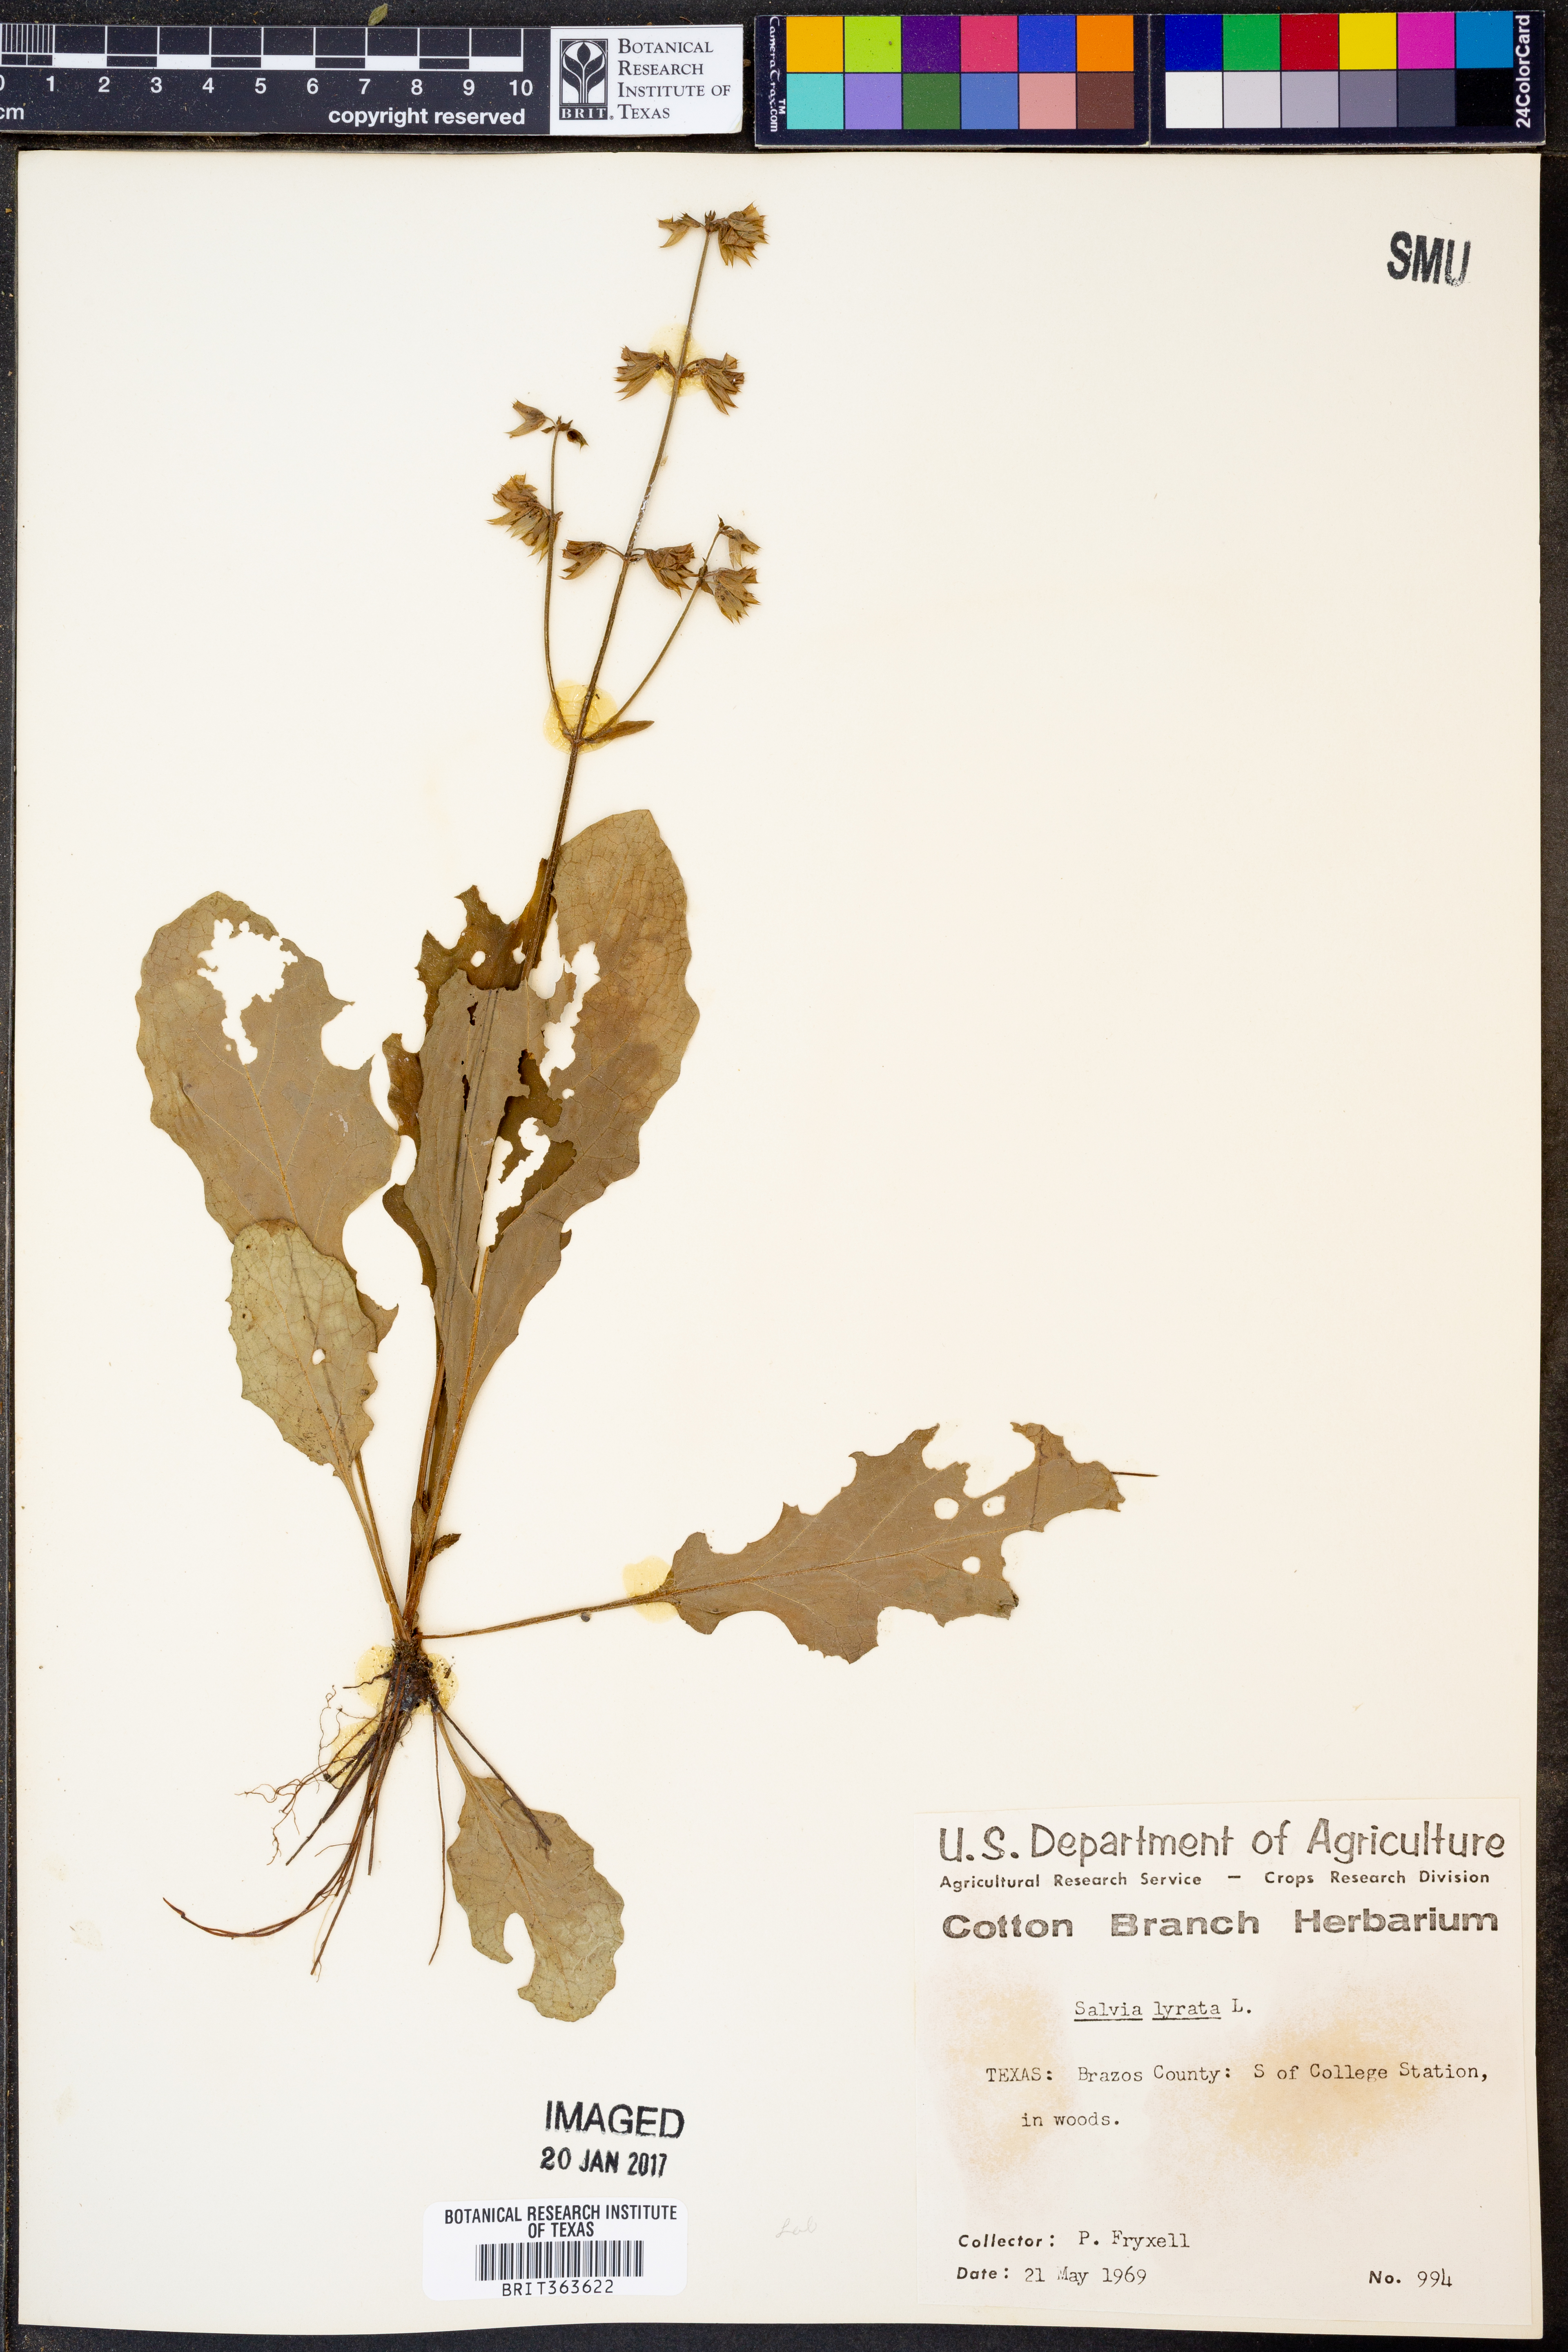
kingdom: Plantae
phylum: Tracheophyta
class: Magnoliopsida
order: Lamiales
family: Lamiaceae
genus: Salvia
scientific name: Salvia lyrata
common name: Cancerweed
